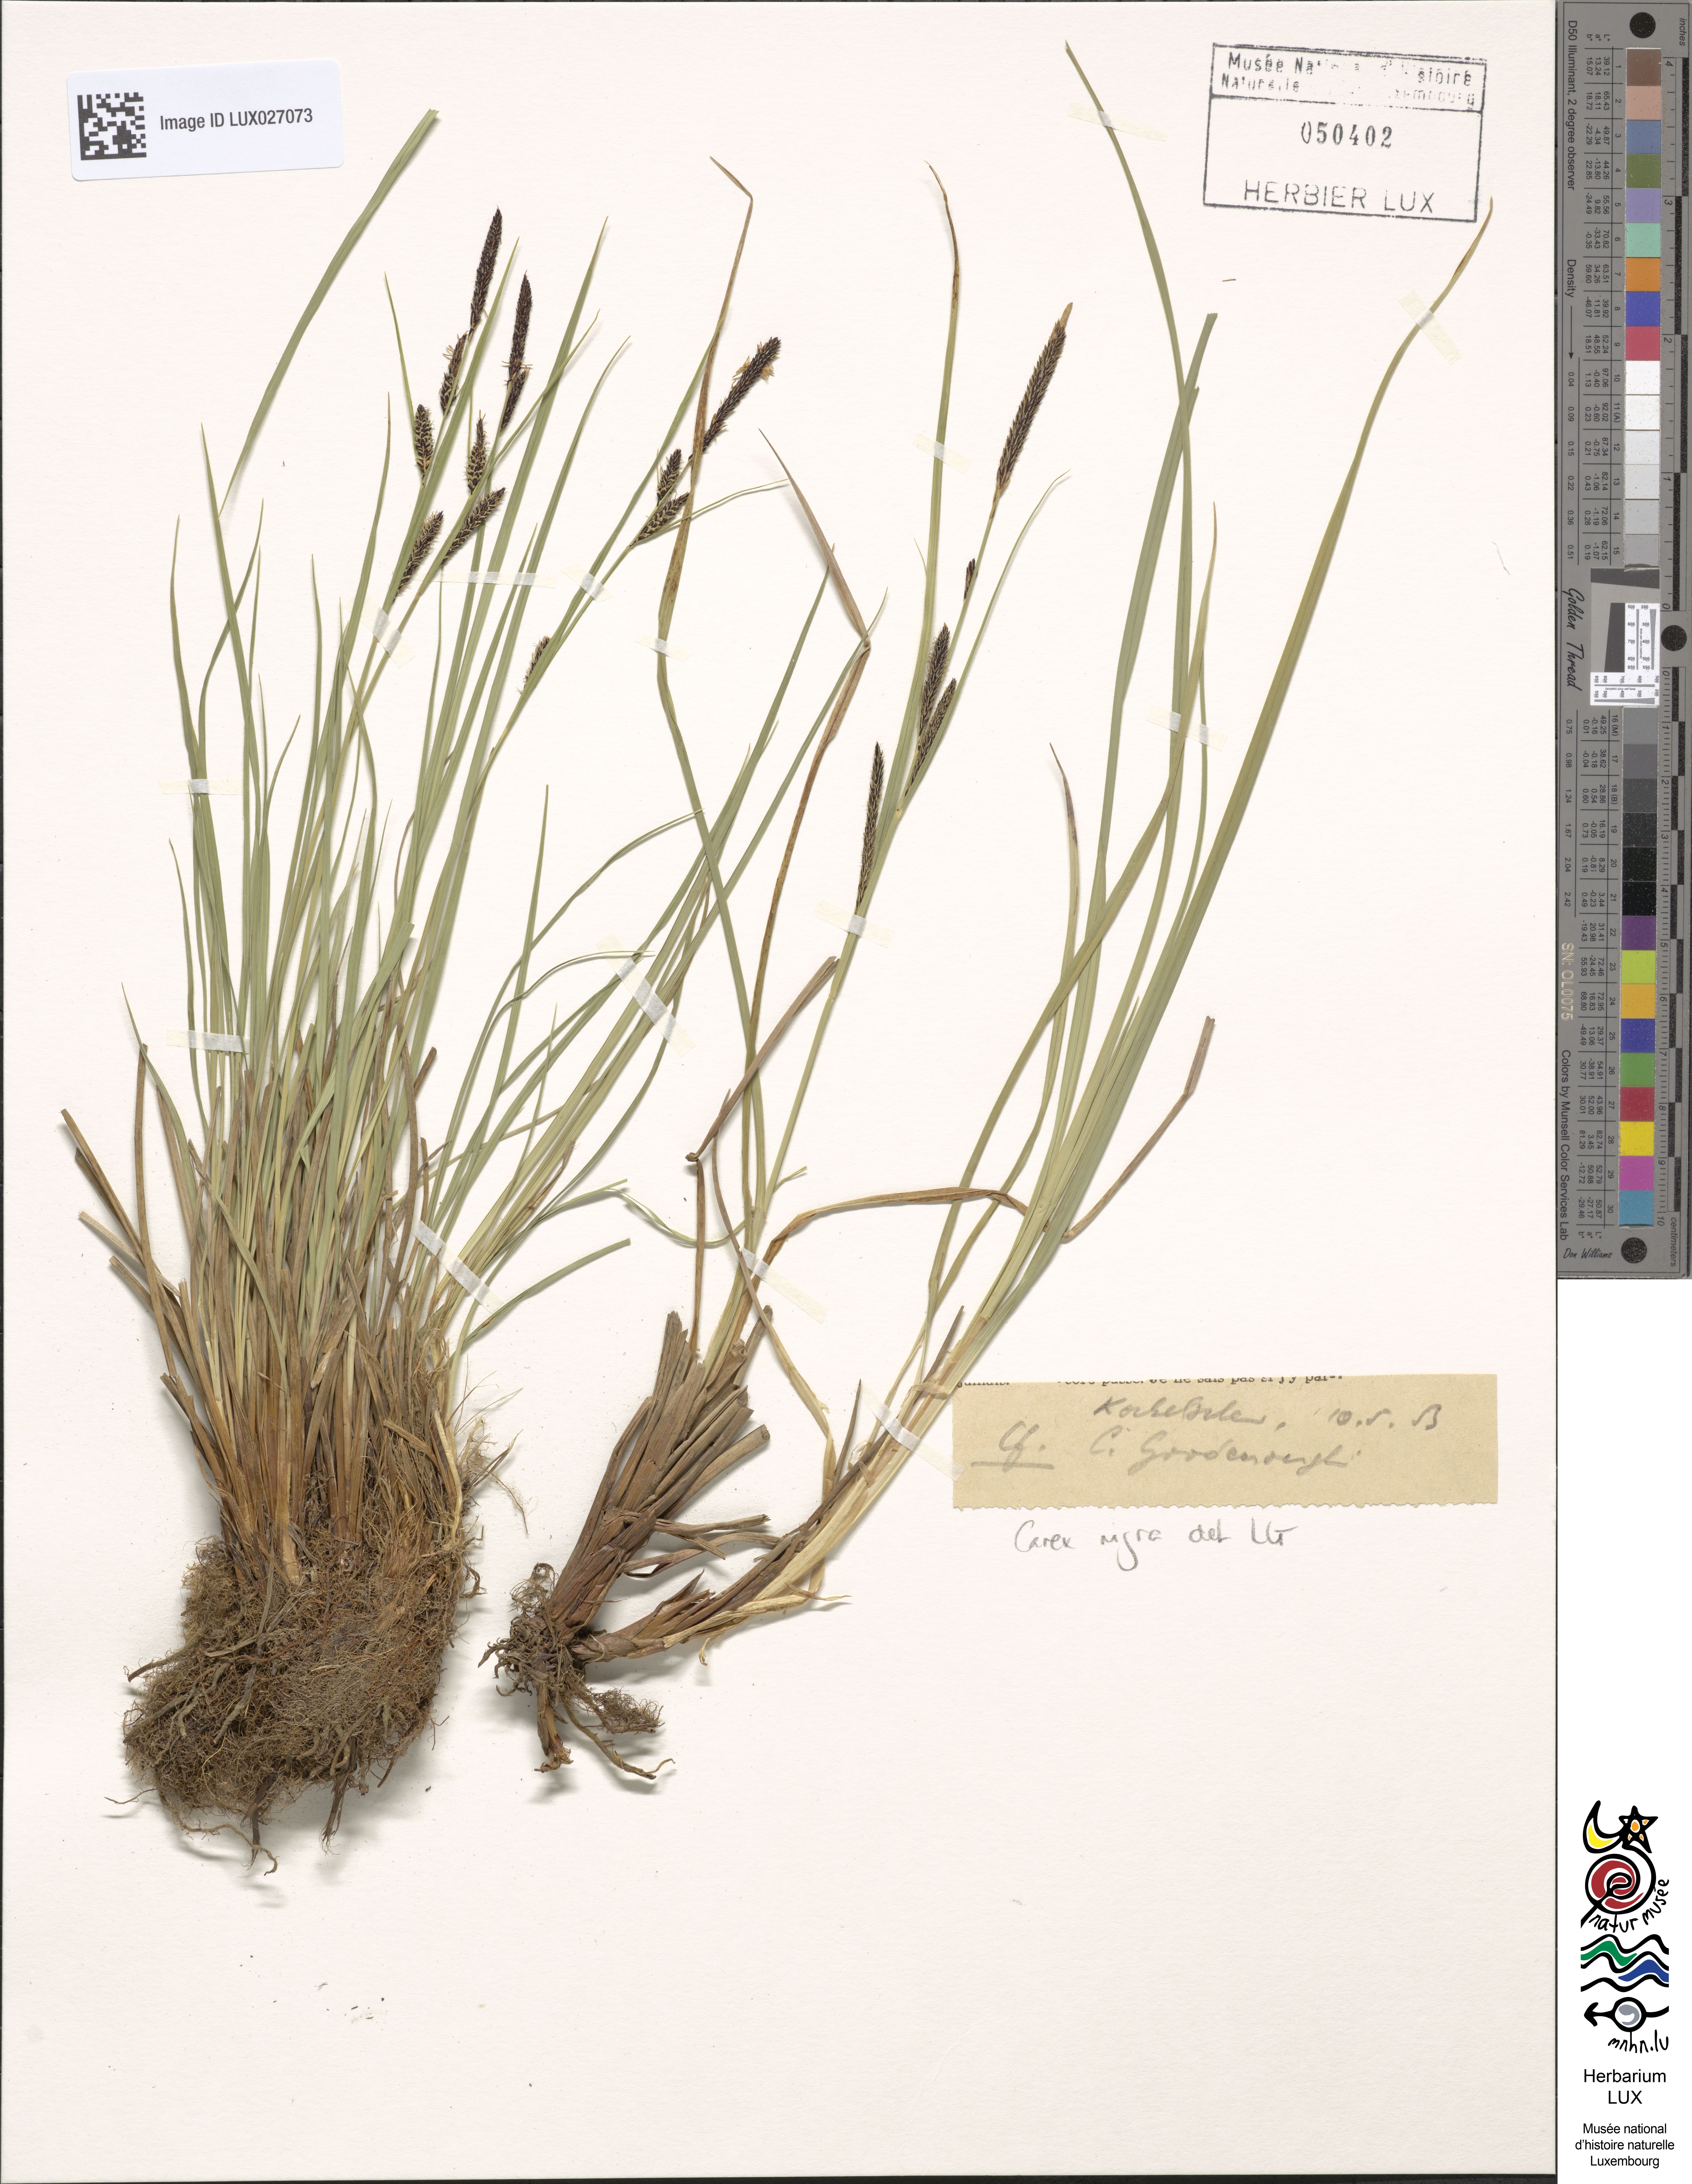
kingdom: Plantae
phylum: Tracheophyta
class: Liliopsida
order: Poales
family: Cyperaceae
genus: Carex
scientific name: Carex nigra
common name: Common sedge
